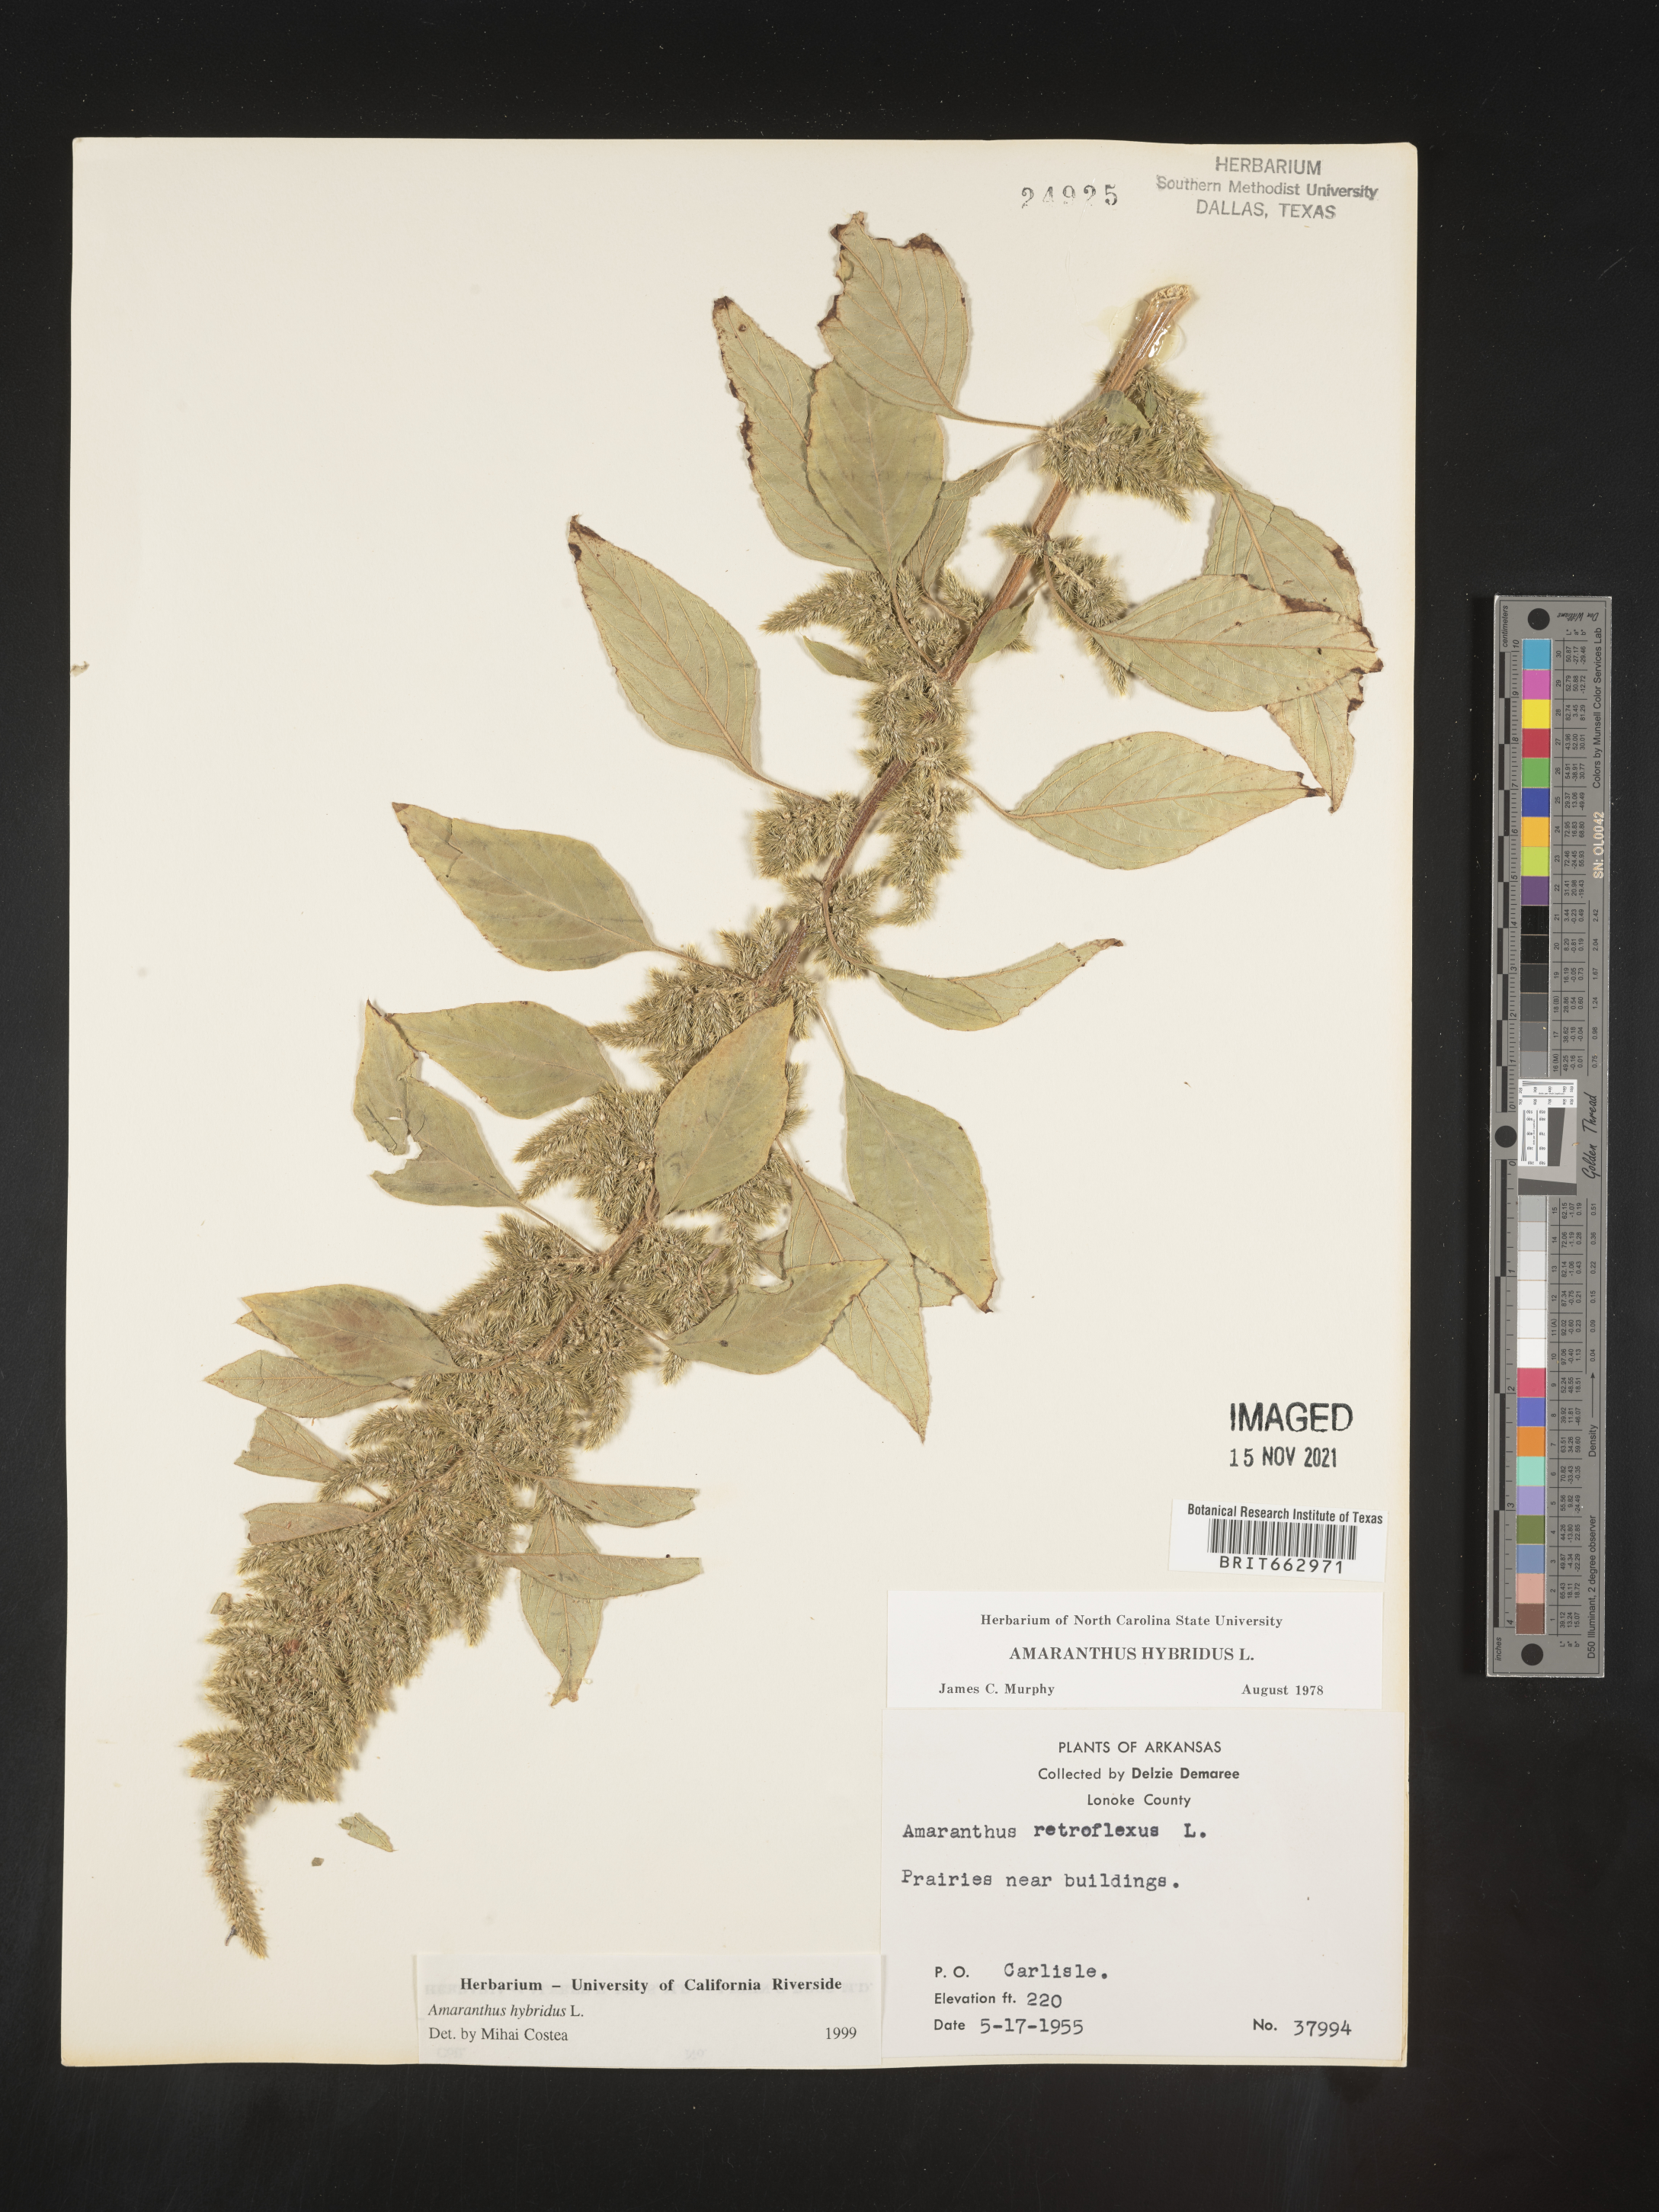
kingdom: Plantae
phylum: Tracheophyta
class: Magnoliopsida
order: Caryophyllales
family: Amaranthaceae
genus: Amaranthus
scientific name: Amaranthus hybridus
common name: Green amaranth
